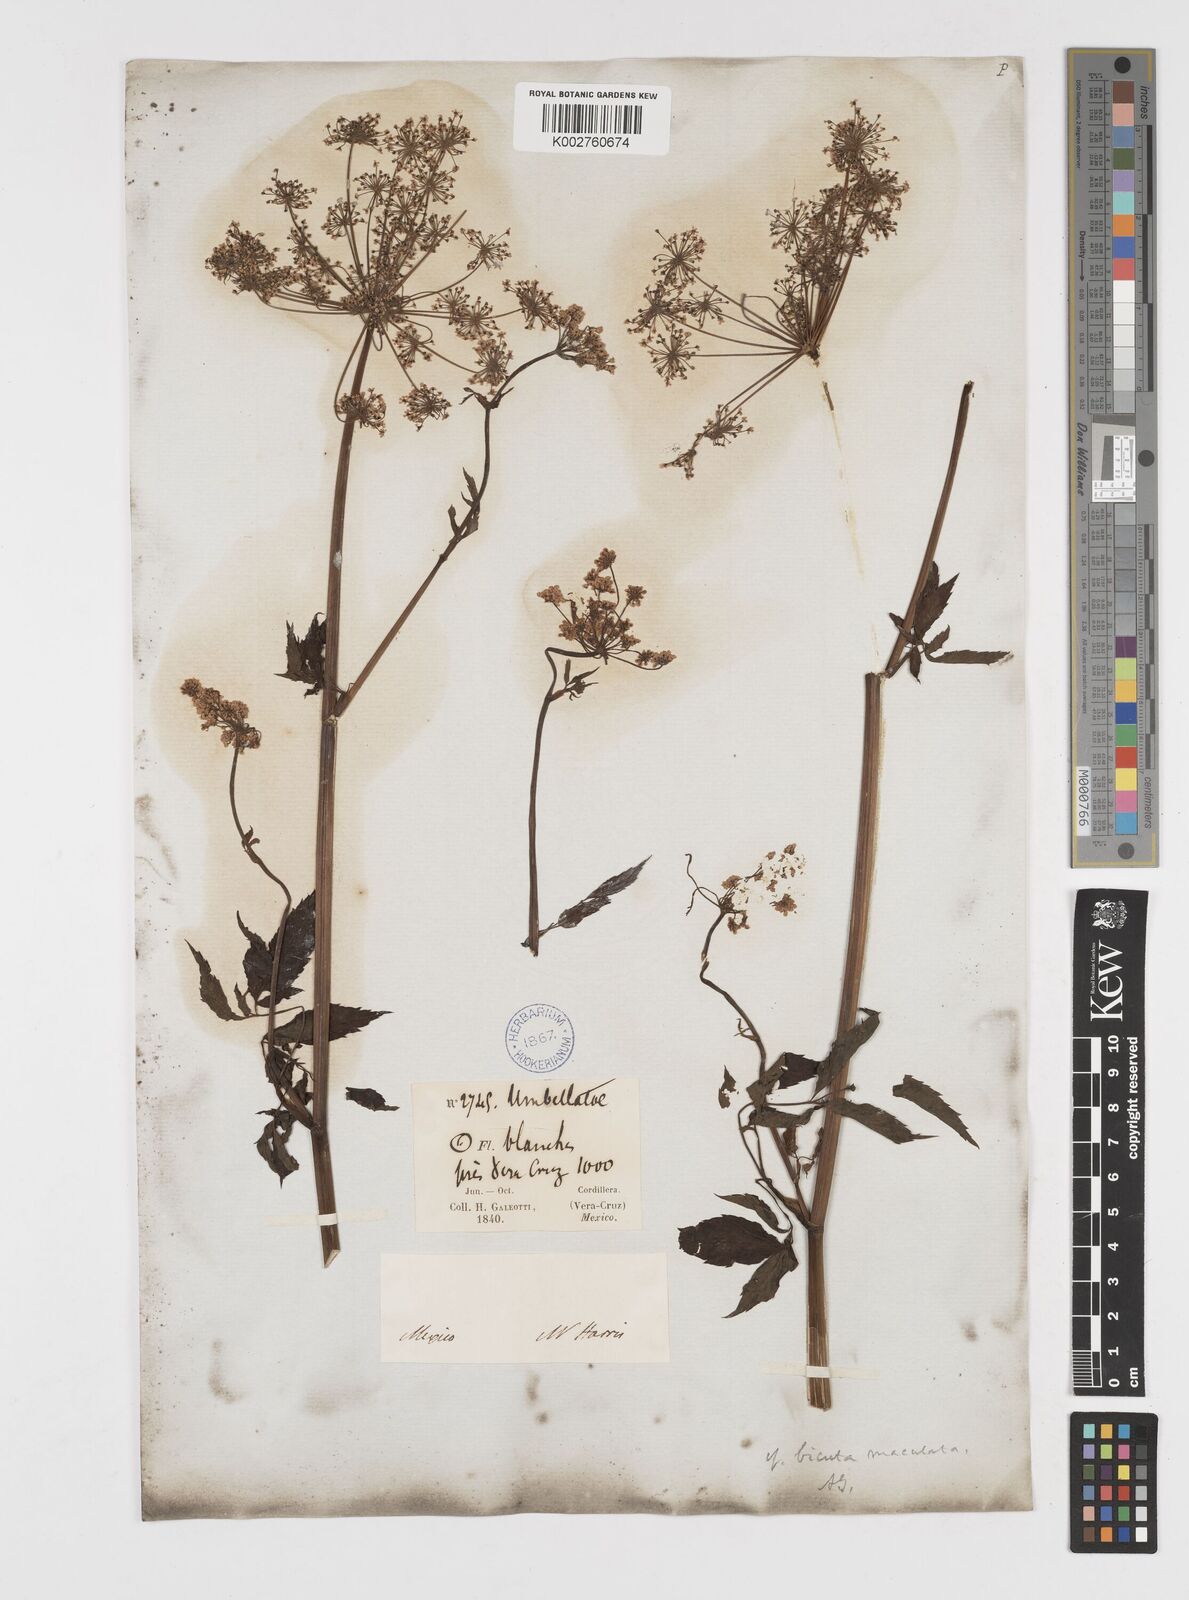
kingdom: Plantae
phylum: Tracheophyta
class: Magnoliopsida
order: Apiales
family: Apiaceae
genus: Cicuta
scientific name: Cicuta douglasii
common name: Western water-hemlock
